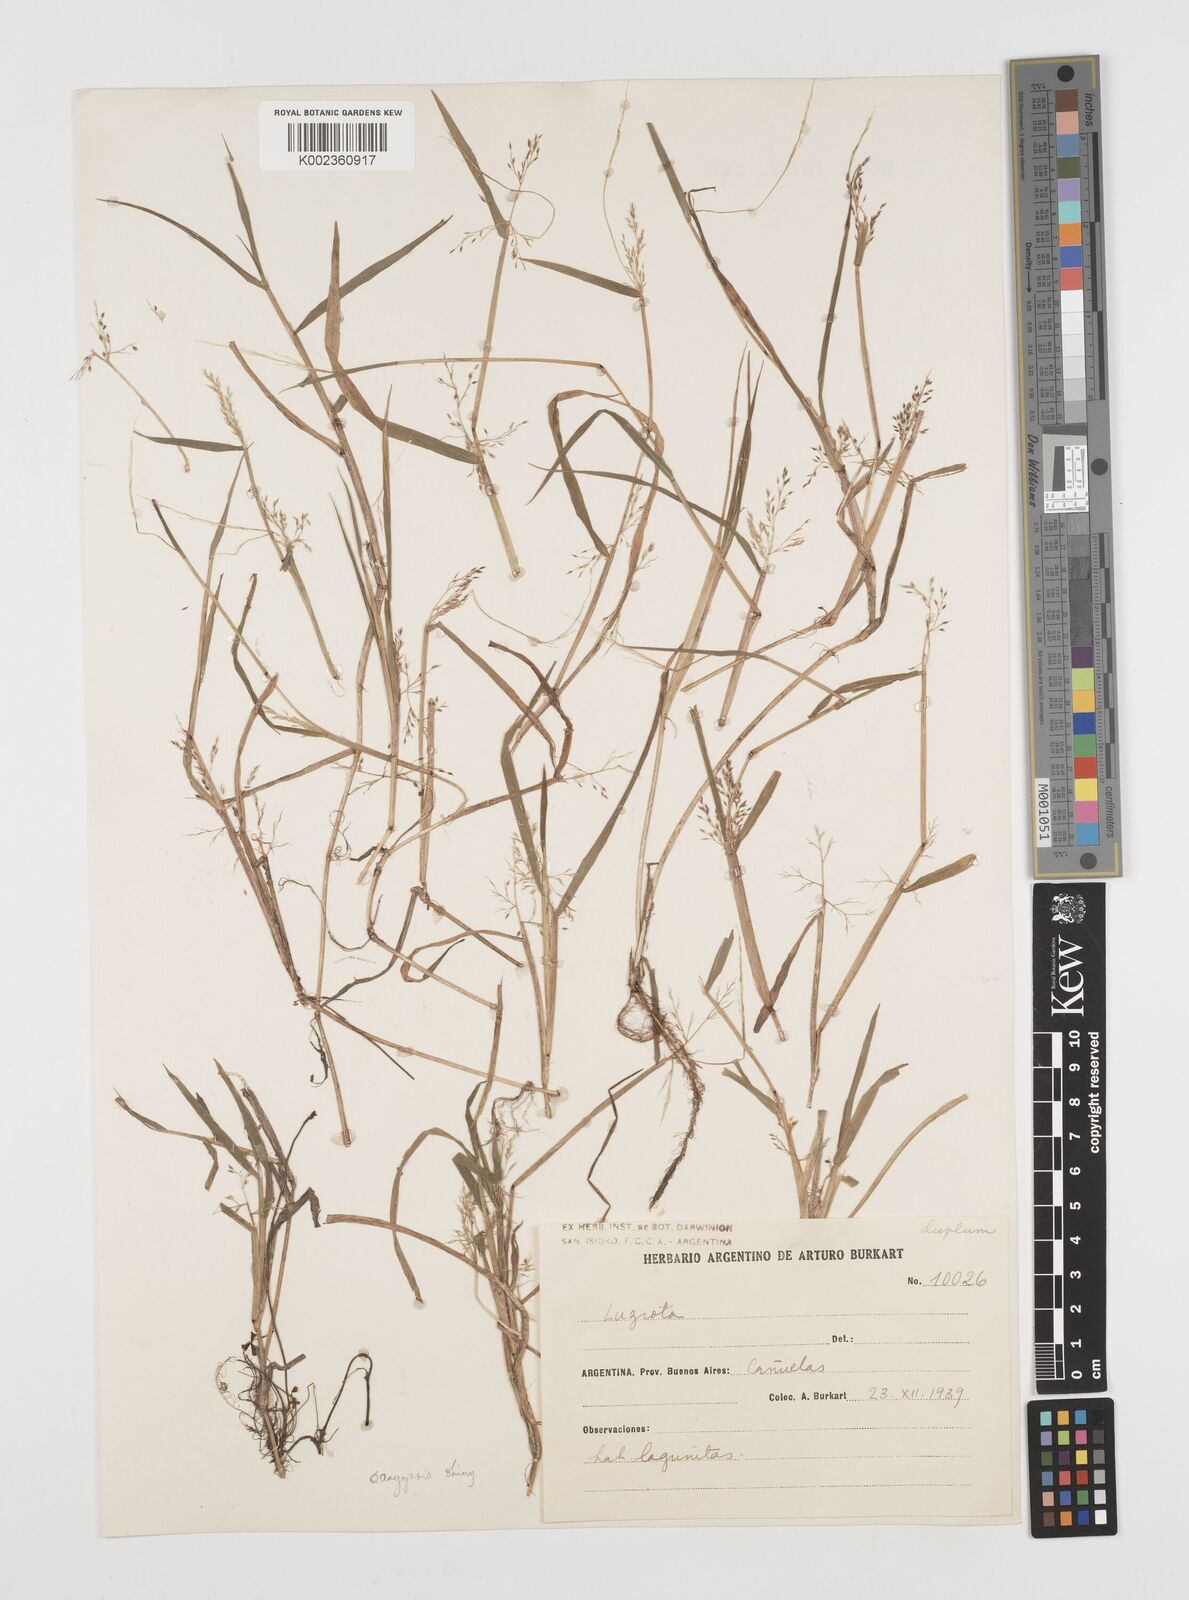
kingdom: Plantae
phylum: Tracheophyta
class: Liliopsida
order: Poales
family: Poaceae
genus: Luziola
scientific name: Luziola peruviana
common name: Peruvian watergrass
